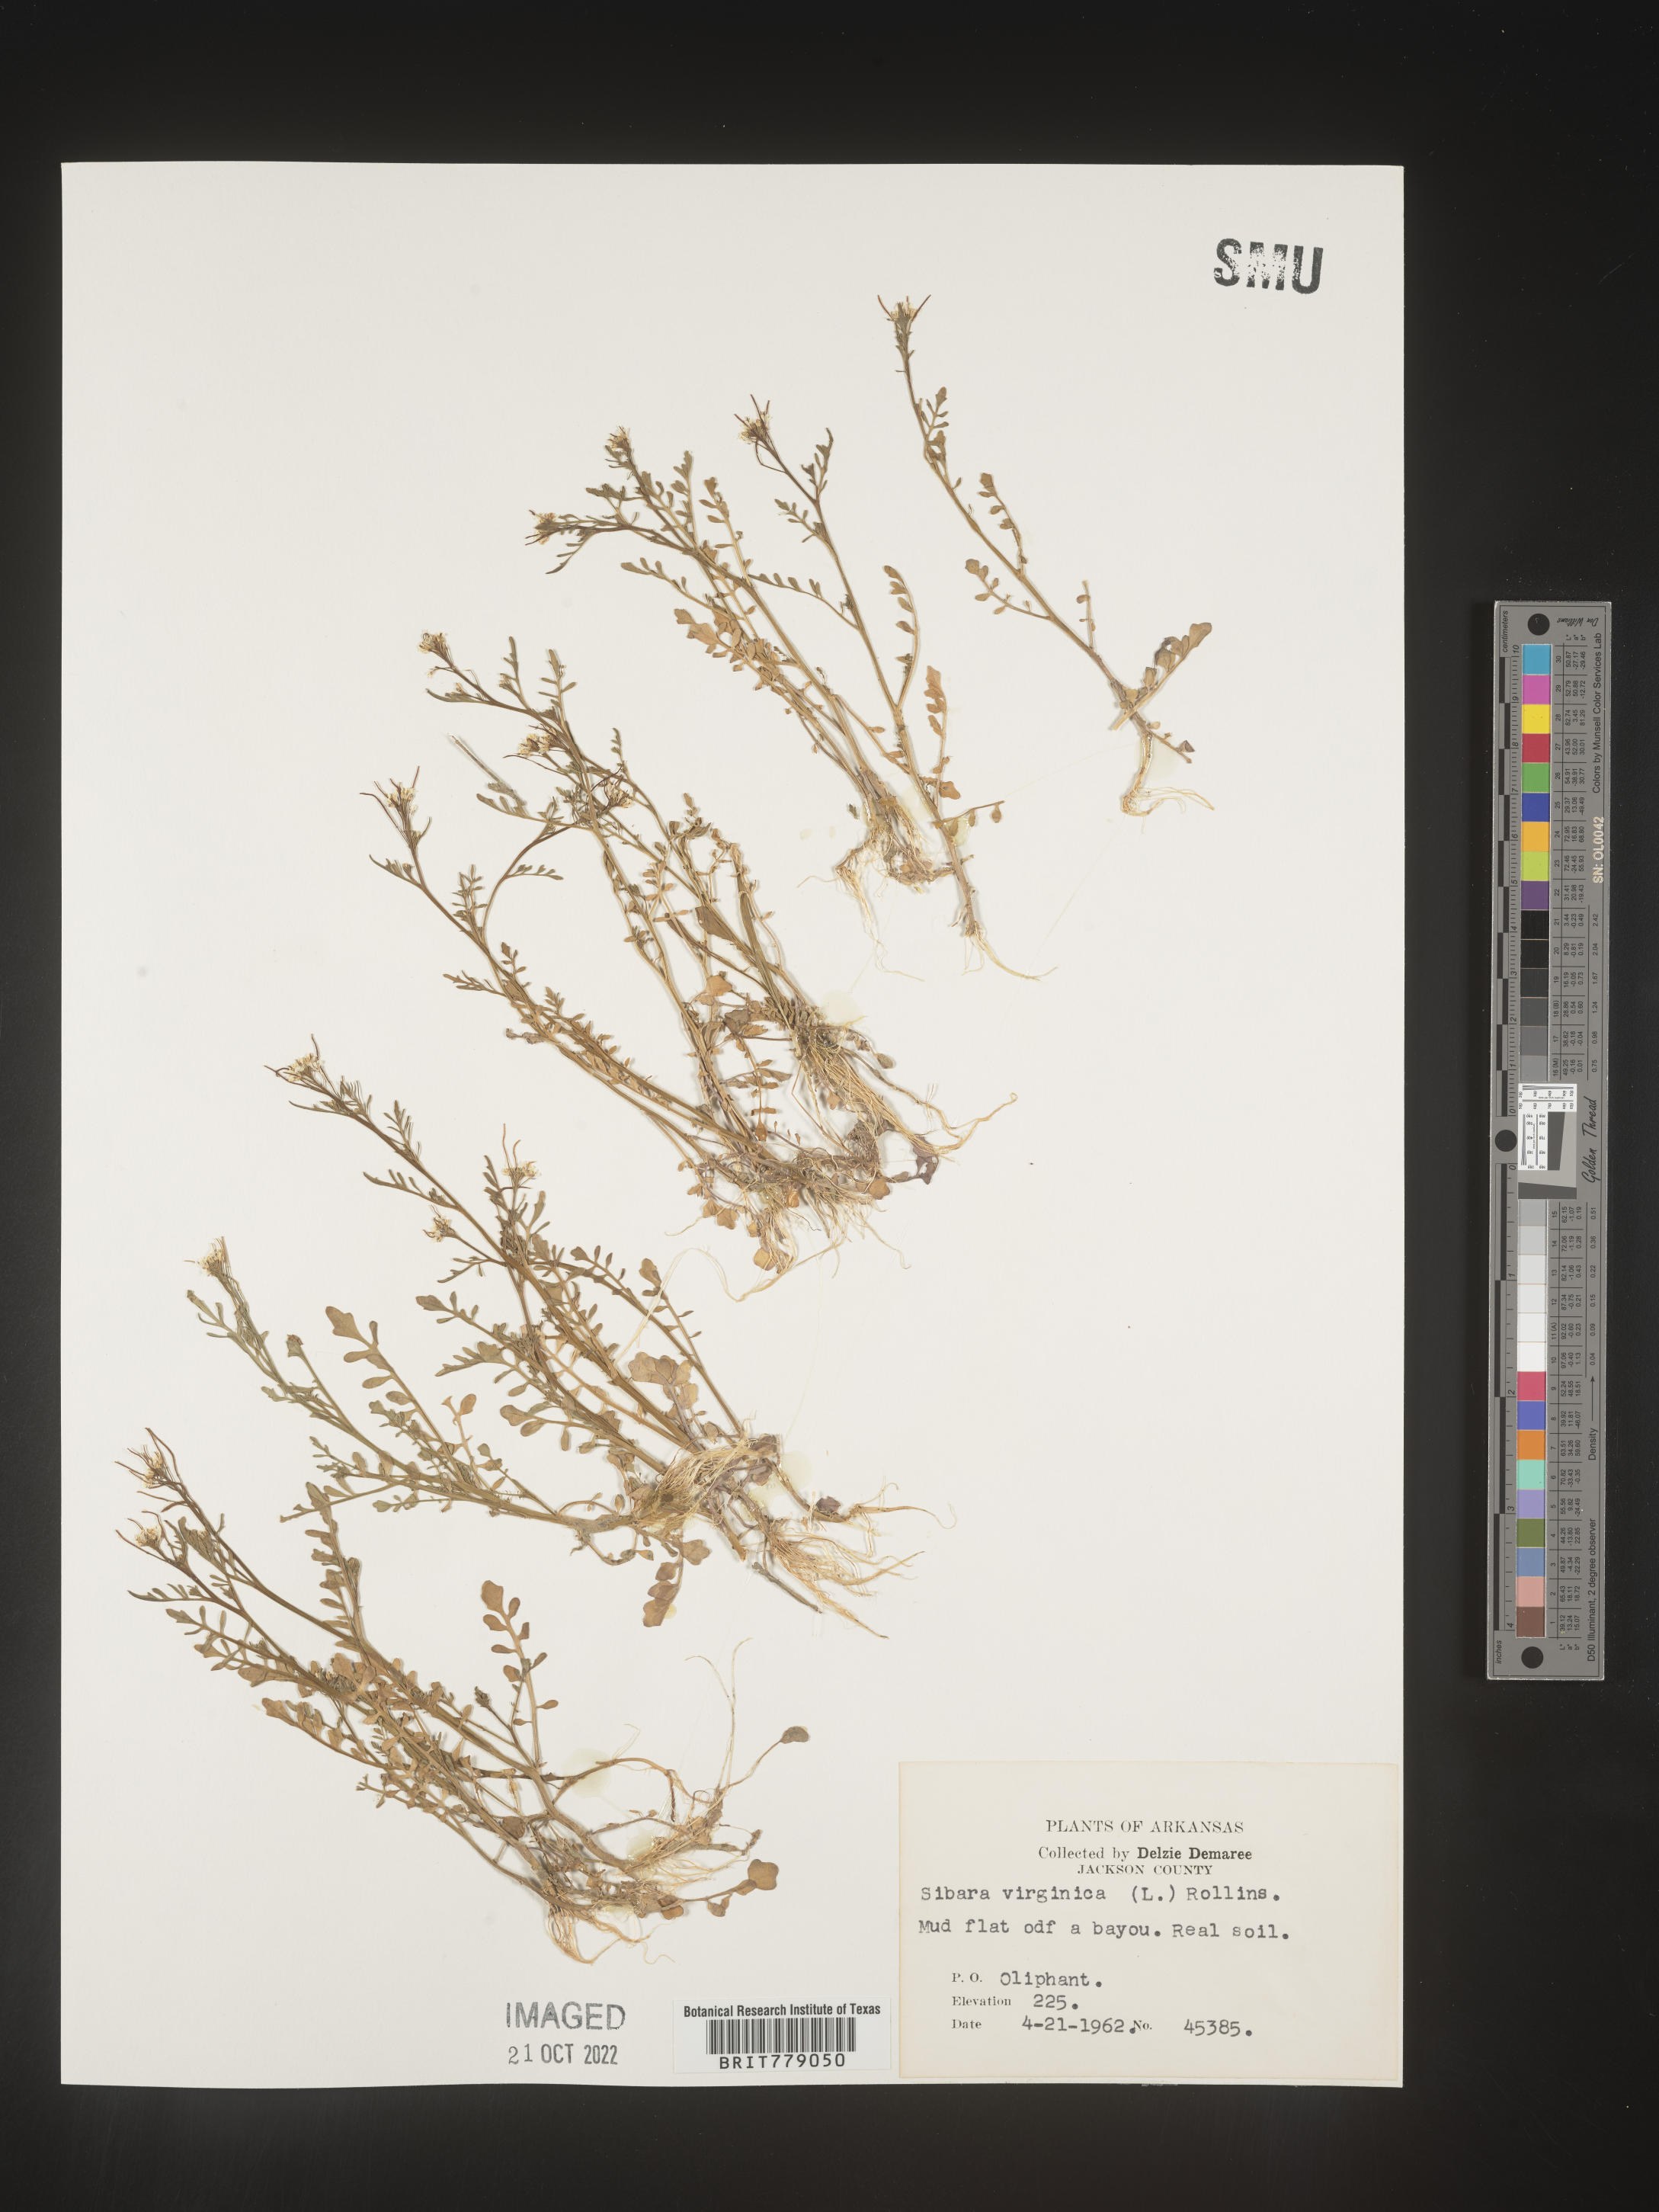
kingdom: Plantae
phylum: Tracheophyta
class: Magnoliopsida
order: Brassicales
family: Brassicaceae
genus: Sibara
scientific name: Sibara
